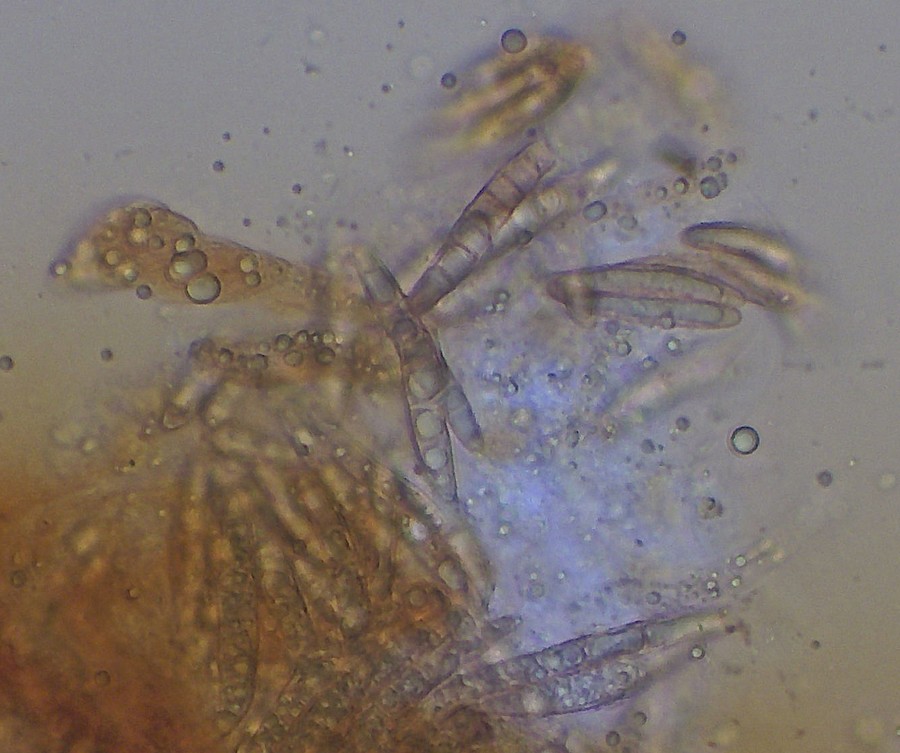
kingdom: Fungi
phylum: Ascomycota
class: Sordariomycetes
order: Hypocreales
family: Bionectriaceae
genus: Xanthonectria
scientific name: Xanthonectria pseudopeziza
